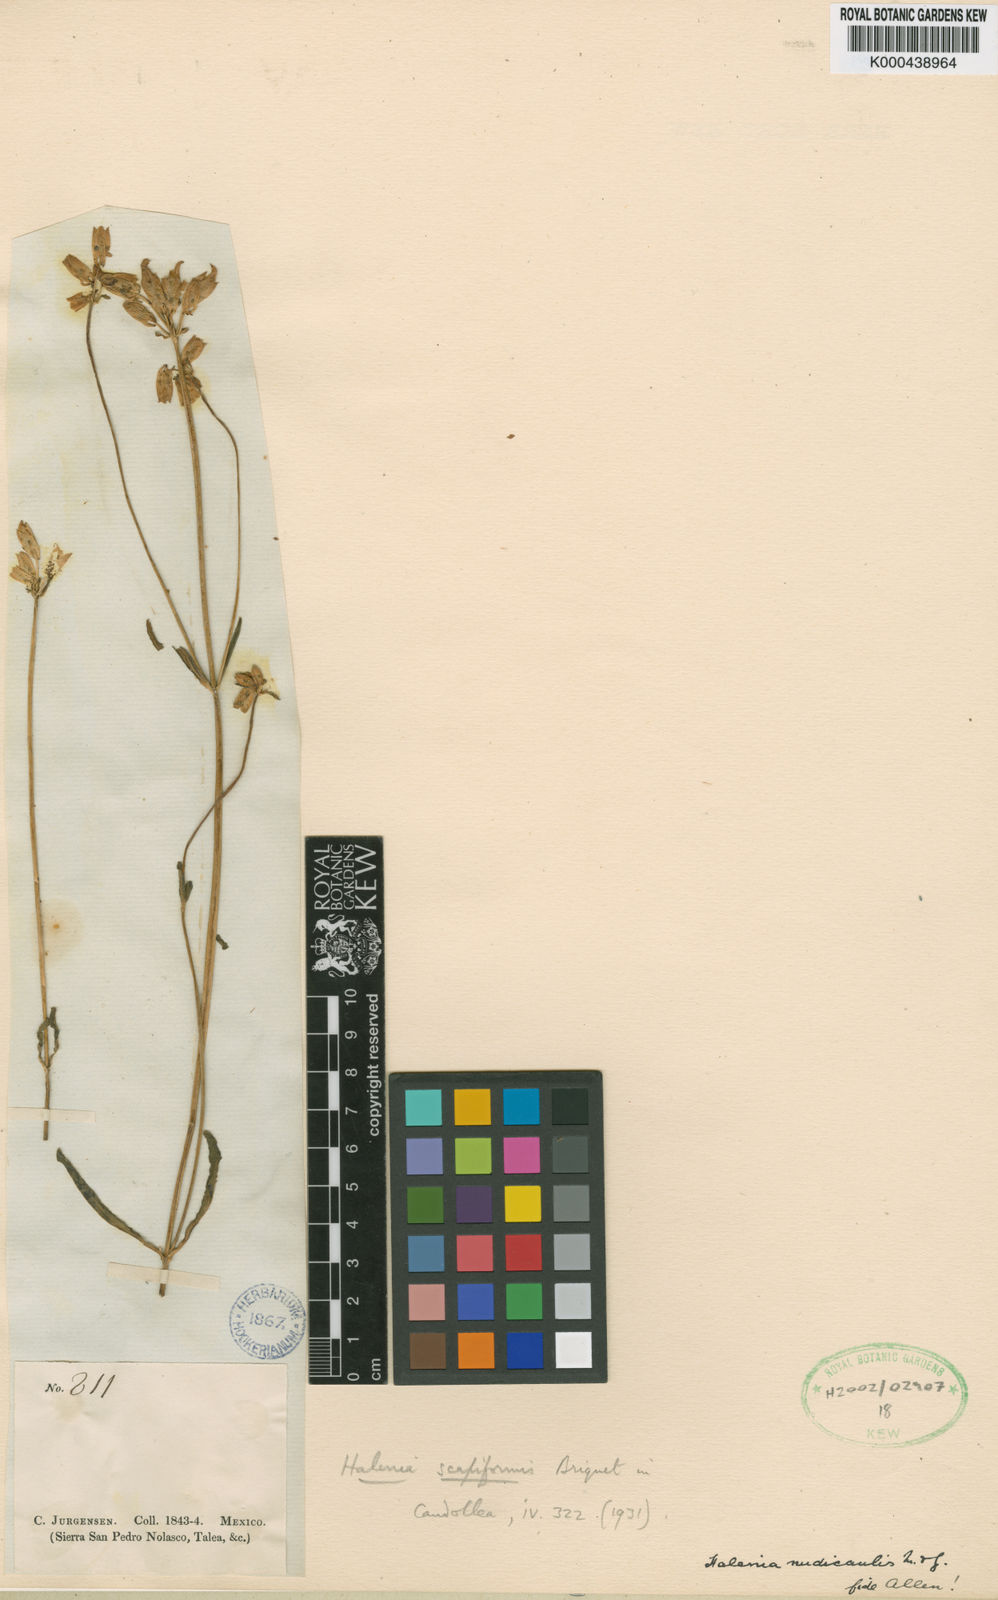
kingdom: Plantae
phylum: Tracheophyta
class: Magnoliopsida
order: Gentianales
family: Gentianaceae
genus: Halenia
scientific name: Halenia plantaginea
